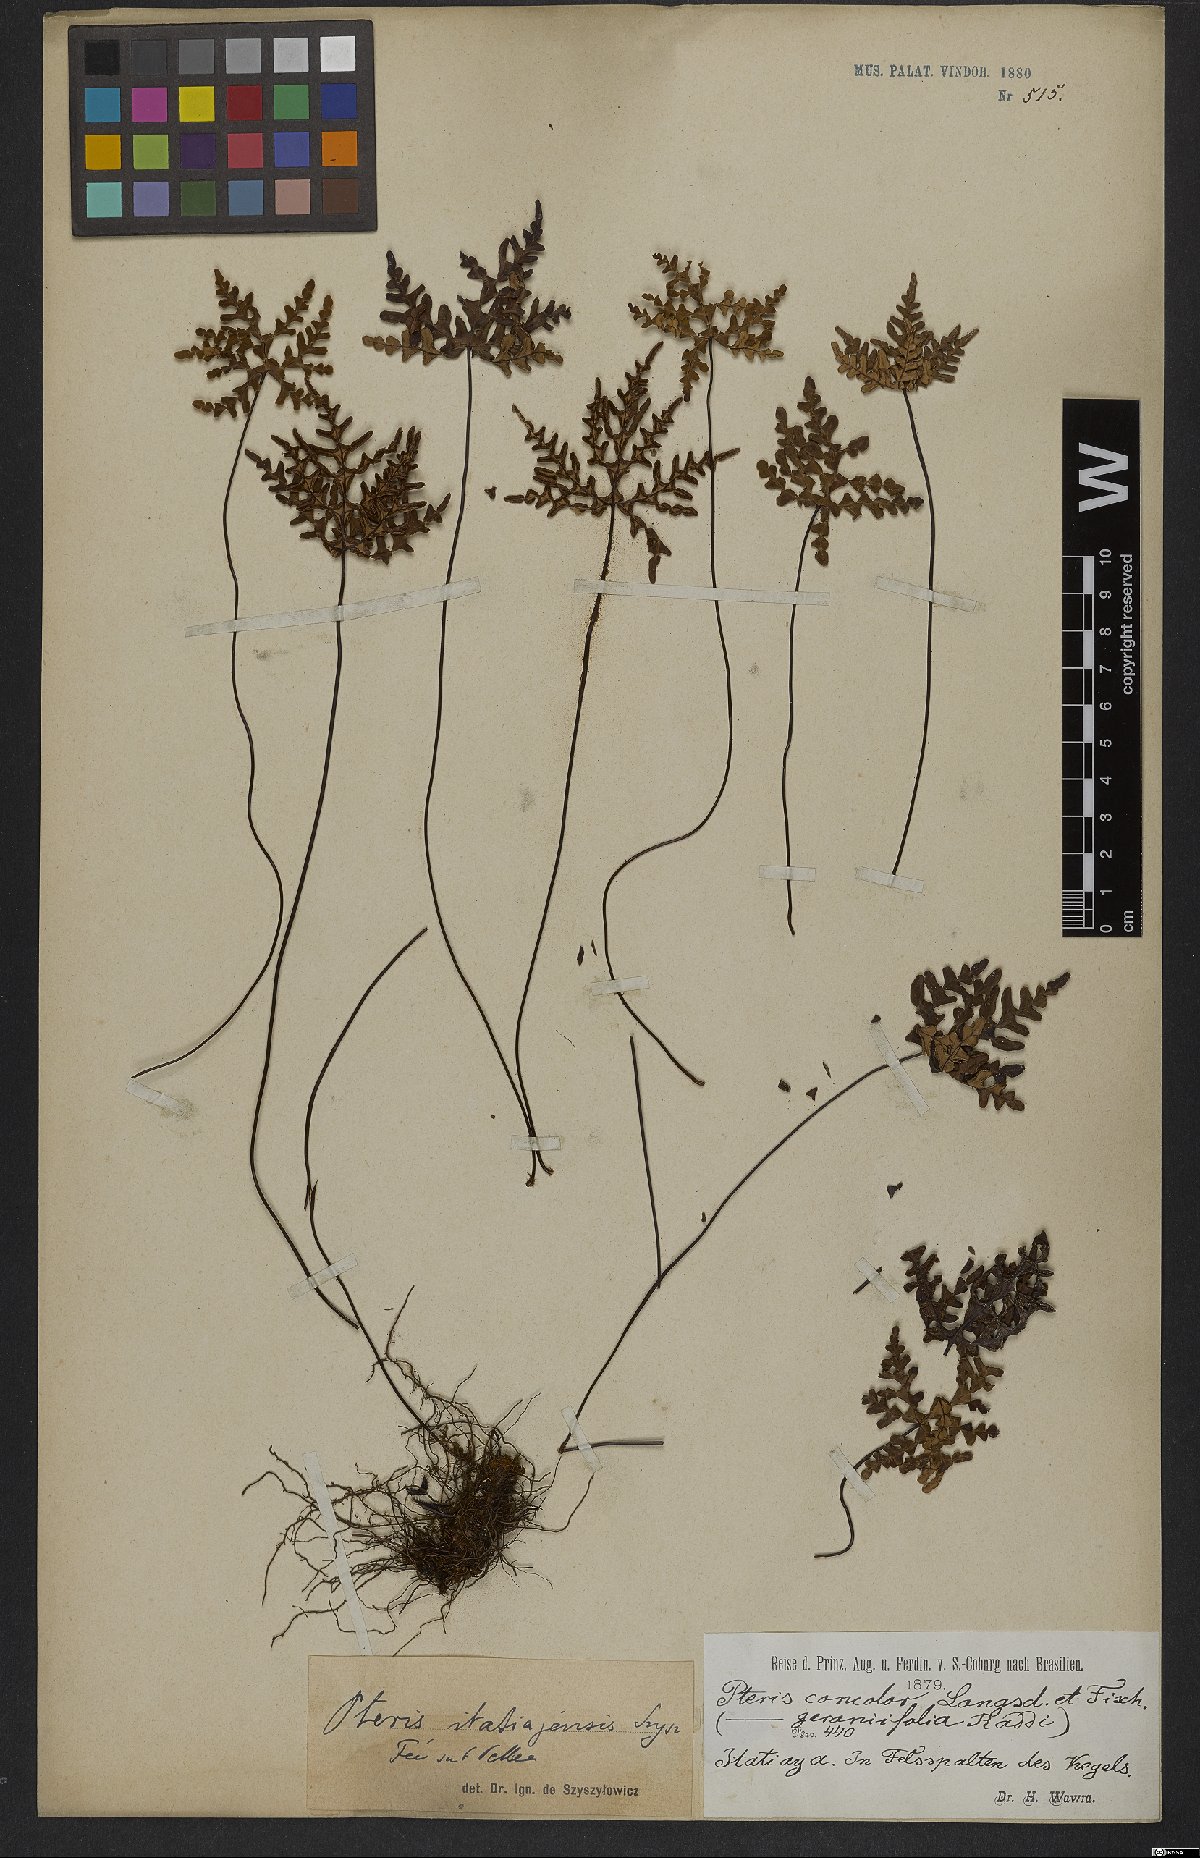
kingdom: Plantae
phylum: Tracheophyta
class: Polypodiopsida
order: Polypodiales
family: Pteridaceae
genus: Lytoneuron
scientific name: Lytoneuron lomariaceum
